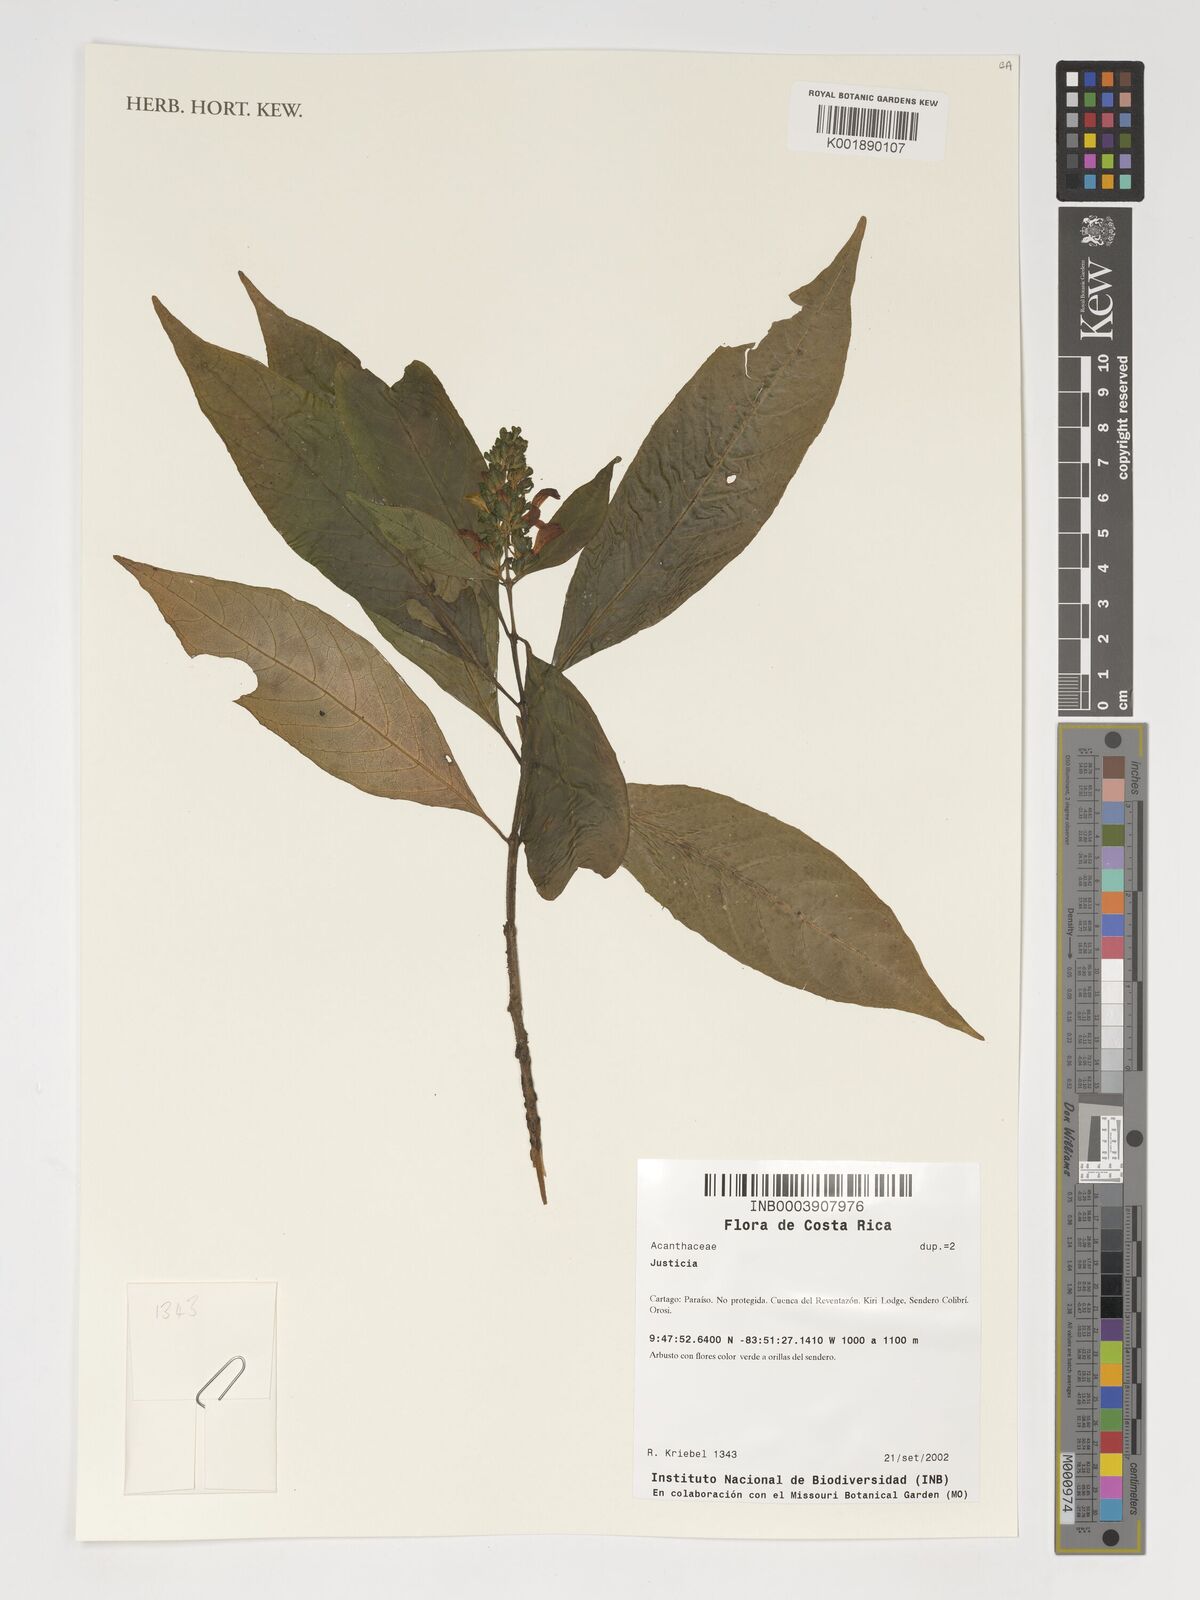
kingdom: Plantae
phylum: Tracheophyta
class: Magnoliopsida
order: Lamiales
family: Acanthaceae
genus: Justicia
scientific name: Justicia
